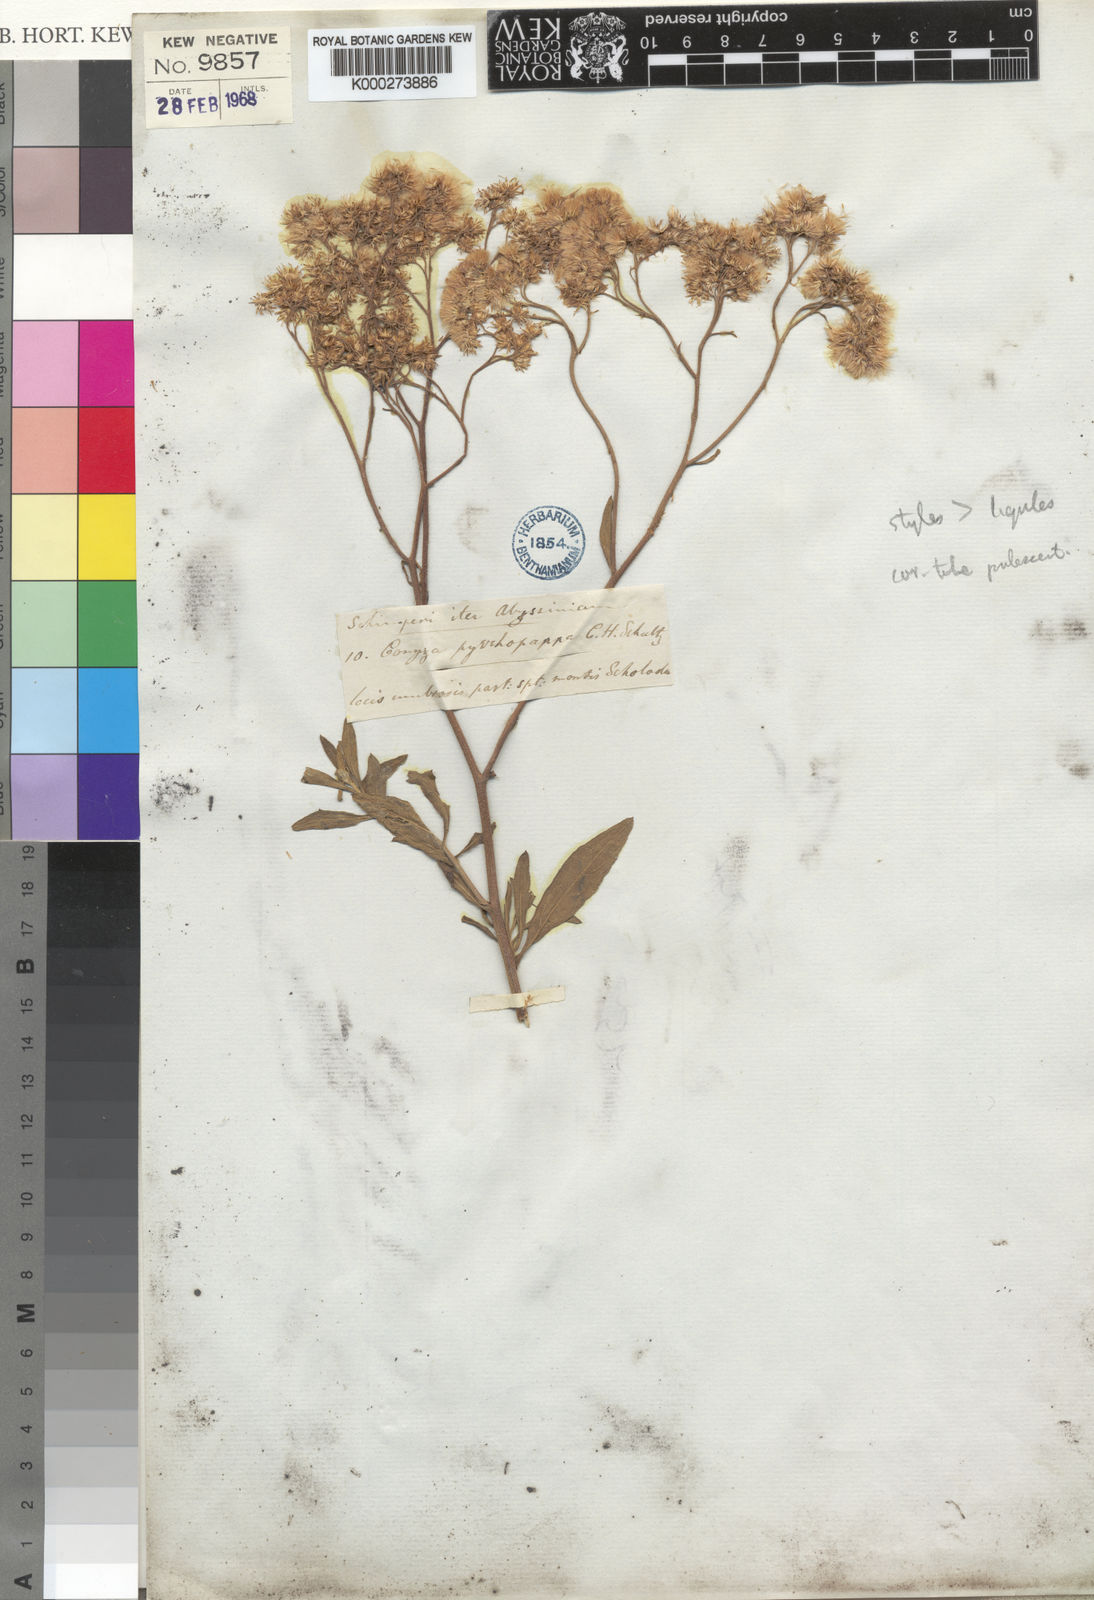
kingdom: Plantae
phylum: Tracheophyta
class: Magnoliopsida
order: Asterales
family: Asteraceae
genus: Microglossa
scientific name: Microglossa pyrrhopappa
